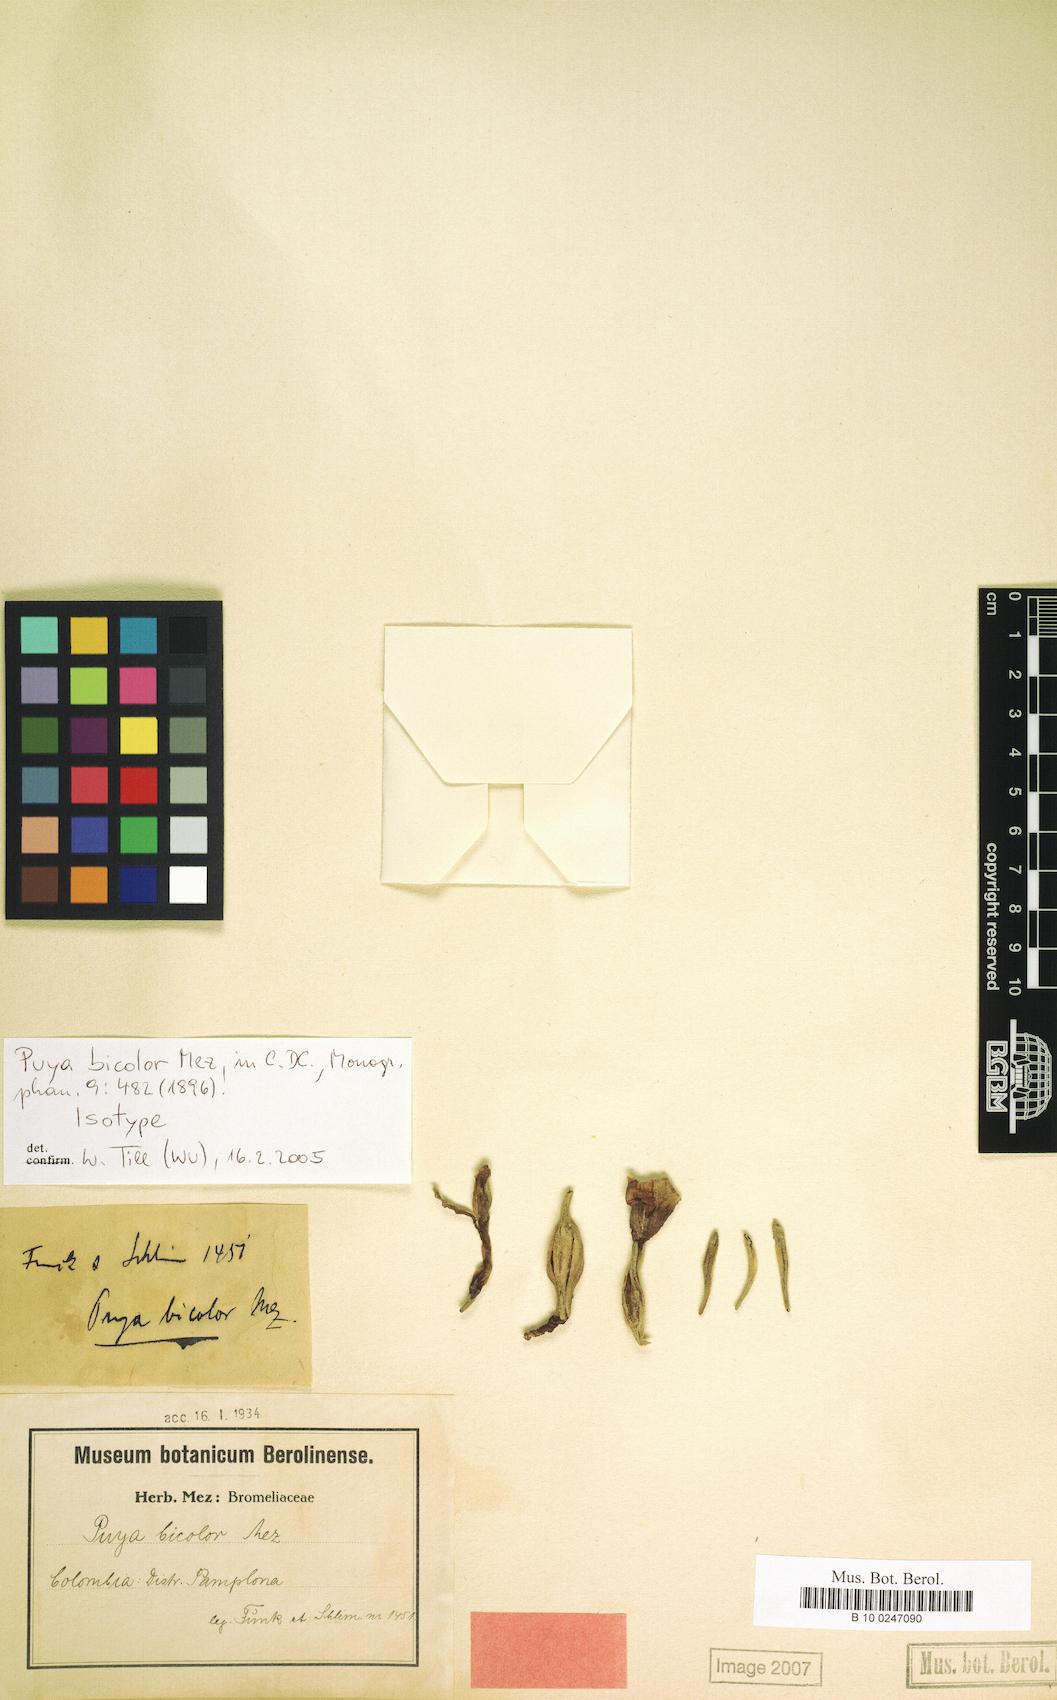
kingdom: Plantae
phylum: Tracheophyta
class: Liliopsida
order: Poales
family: Bromeliaceae
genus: Puya
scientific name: Puya bicolor
